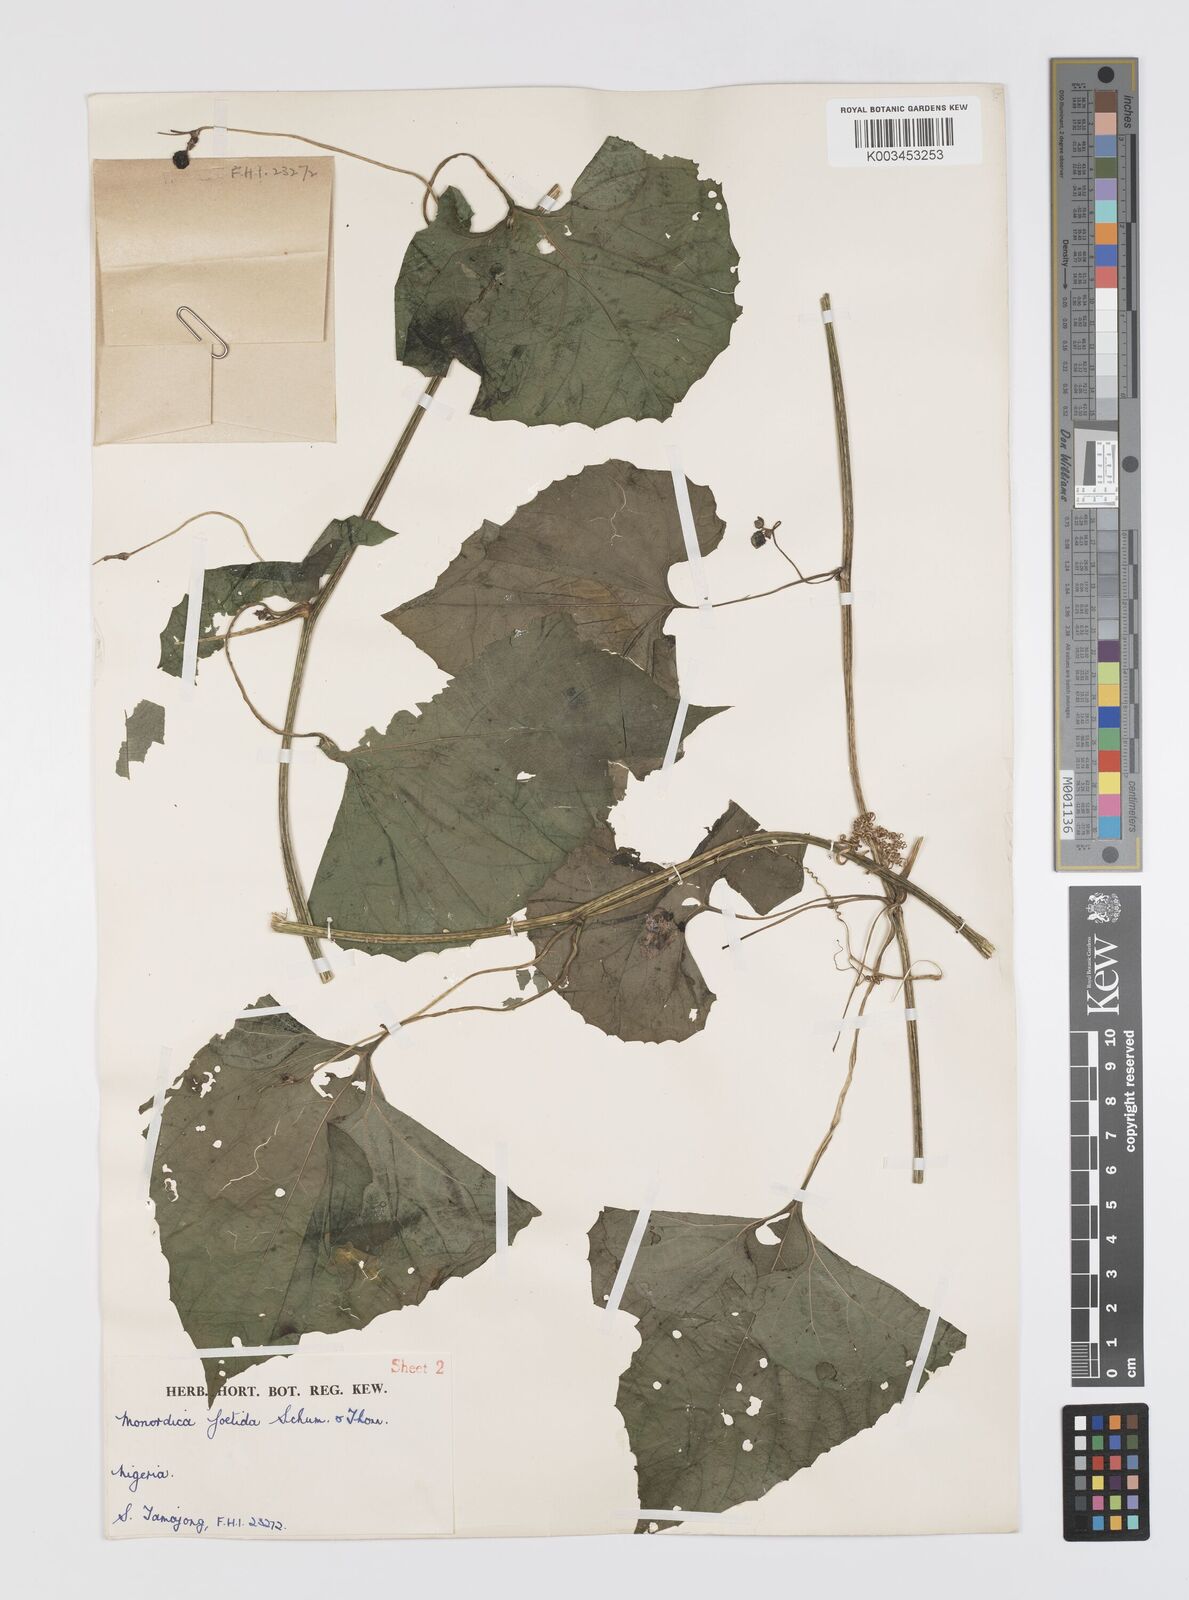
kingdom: Plantae
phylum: Tracheophyta
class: Magnoliopsida
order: Cucurbitales
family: Cucurbitaceae
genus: Momordica
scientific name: Momordica foetida
